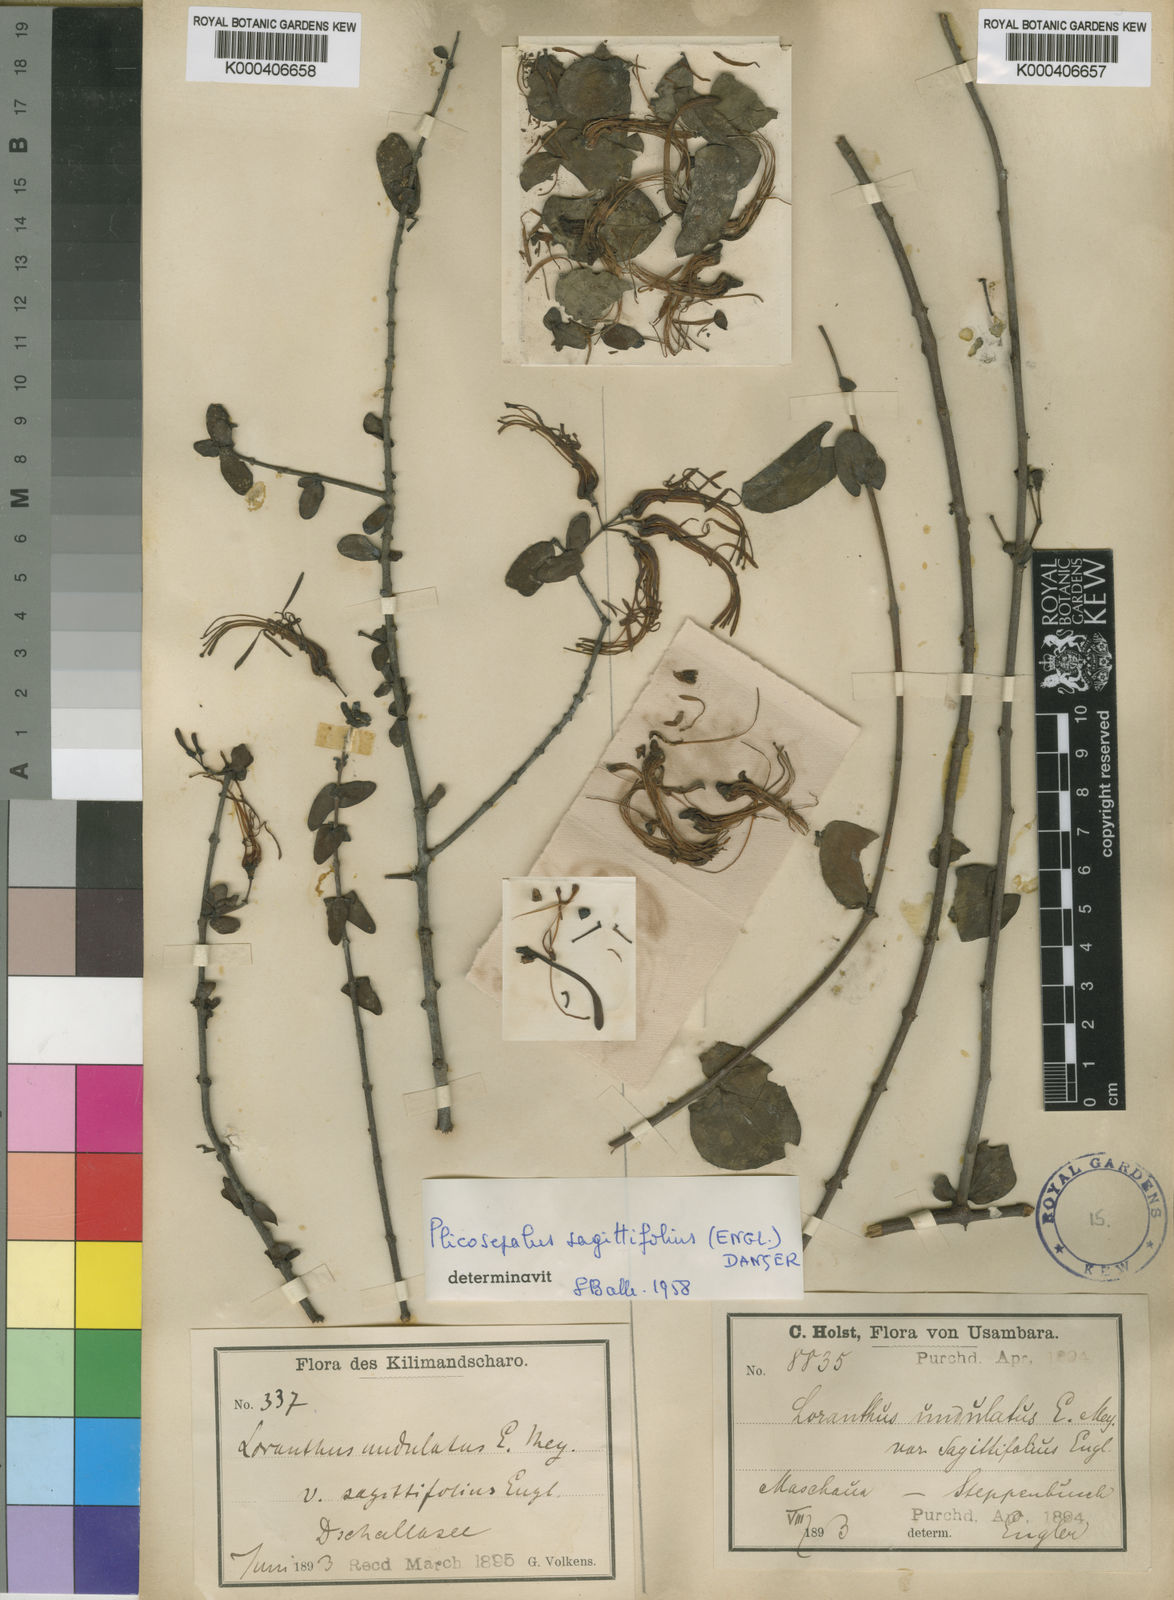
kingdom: Plantae
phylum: Tracheophyta
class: Magnoliopsida
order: Santalales
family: Loranthaceae
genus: Plicosepalus
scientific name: Plicosepalus sagittifolius
